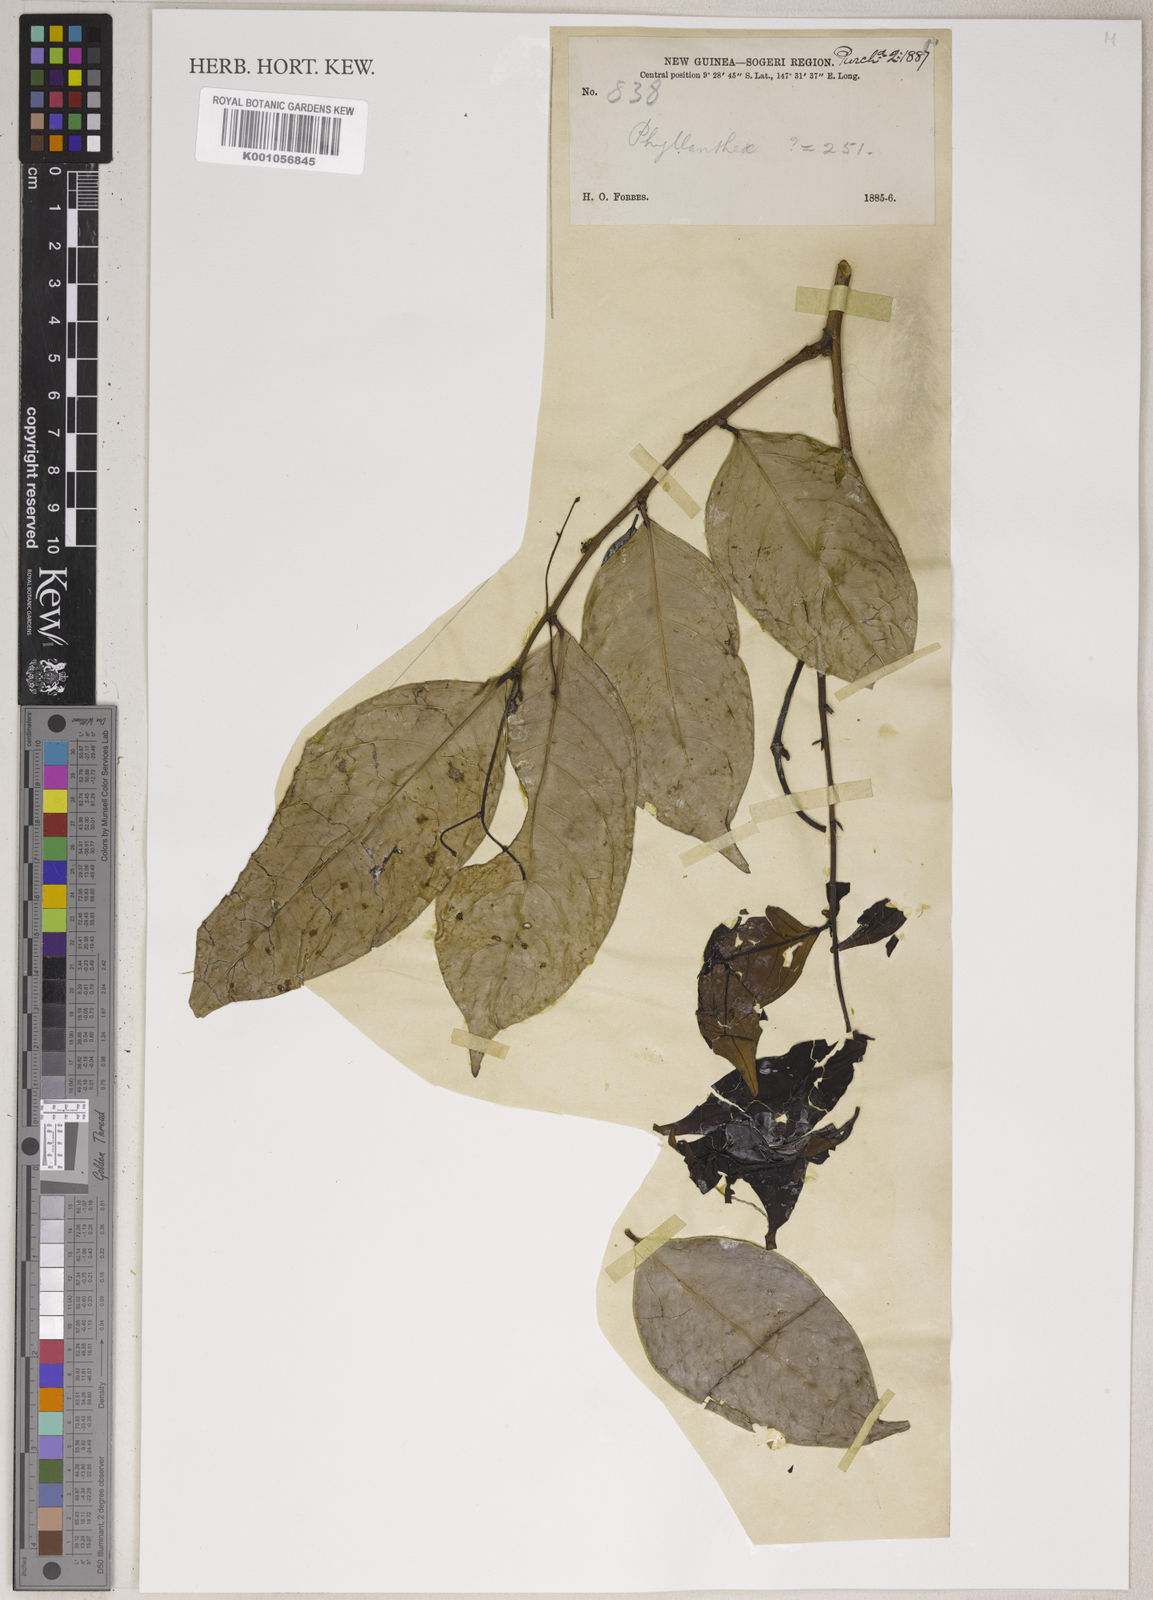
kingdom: Plantae
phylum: Tracheophyta
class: Magnoliopsida
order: Malpighiales
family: Phyllanthaceae
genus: Phyllanthus
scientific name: Phyllanthus effusus
